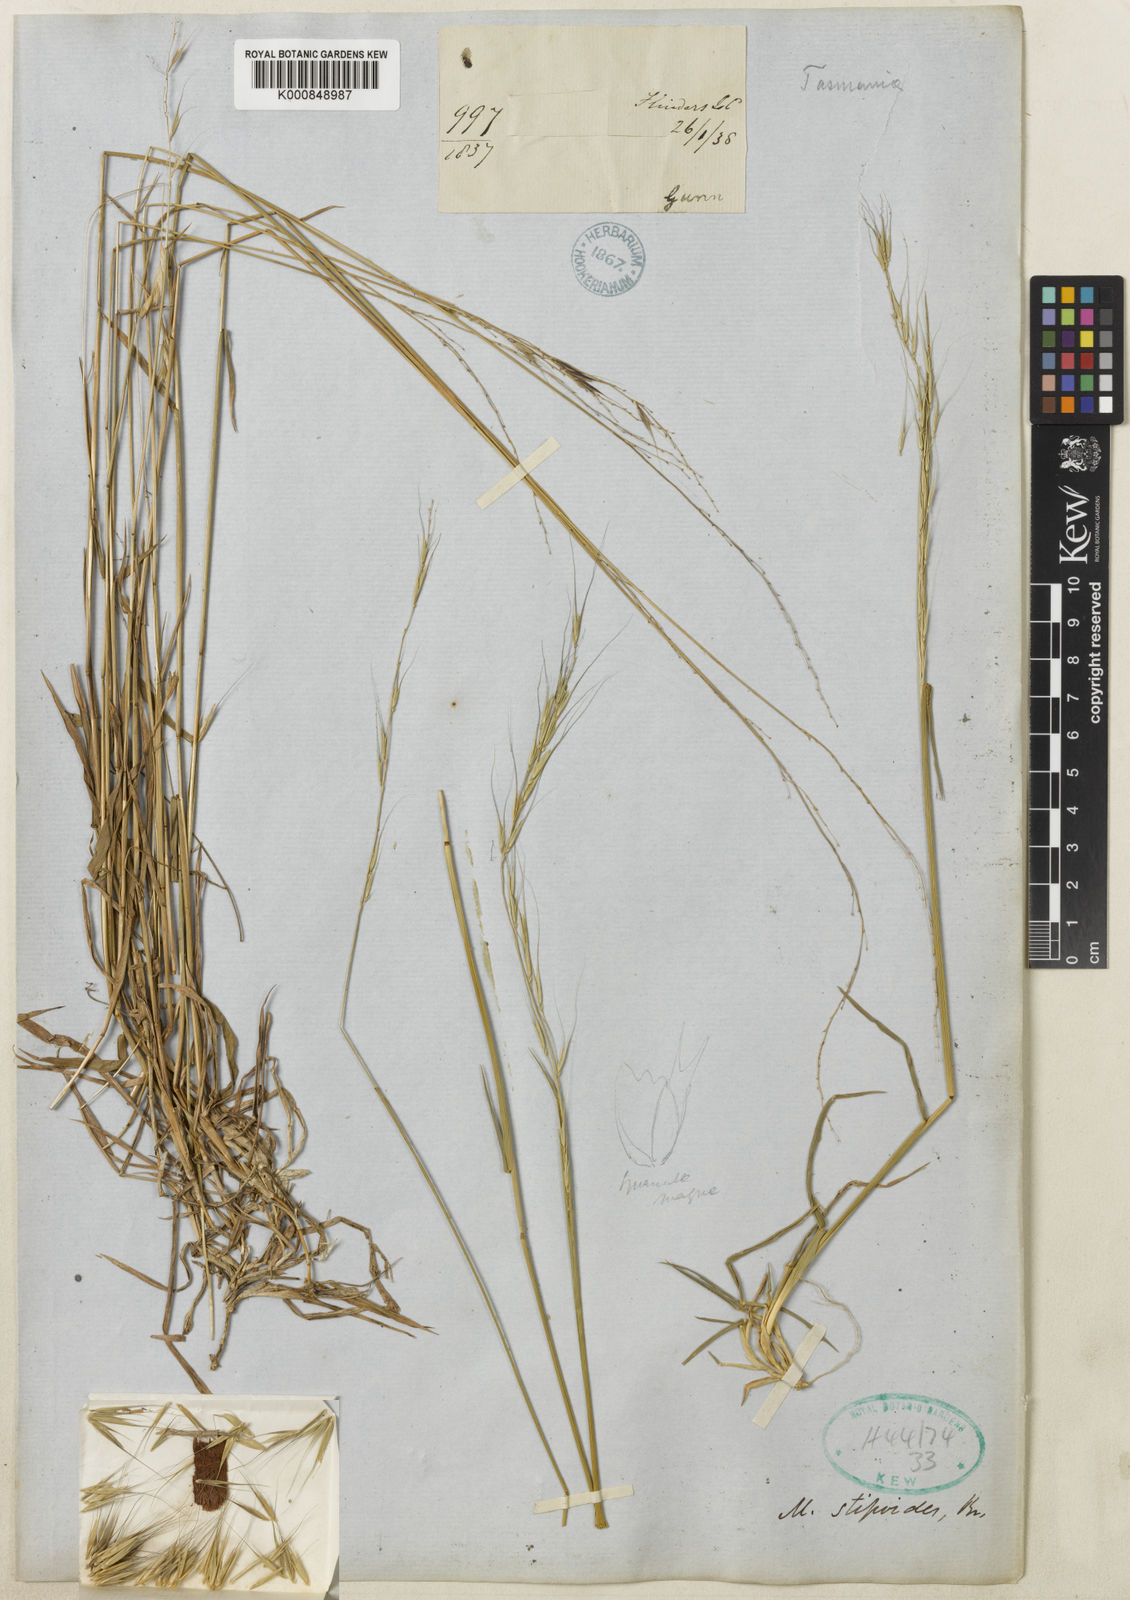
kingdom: Plantae
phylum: Tracheophyta
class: Liliopsida
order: Poales
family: Poaceae
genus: Microlaena
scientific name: Microlaena stipoides
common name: Meadow ricegrass
